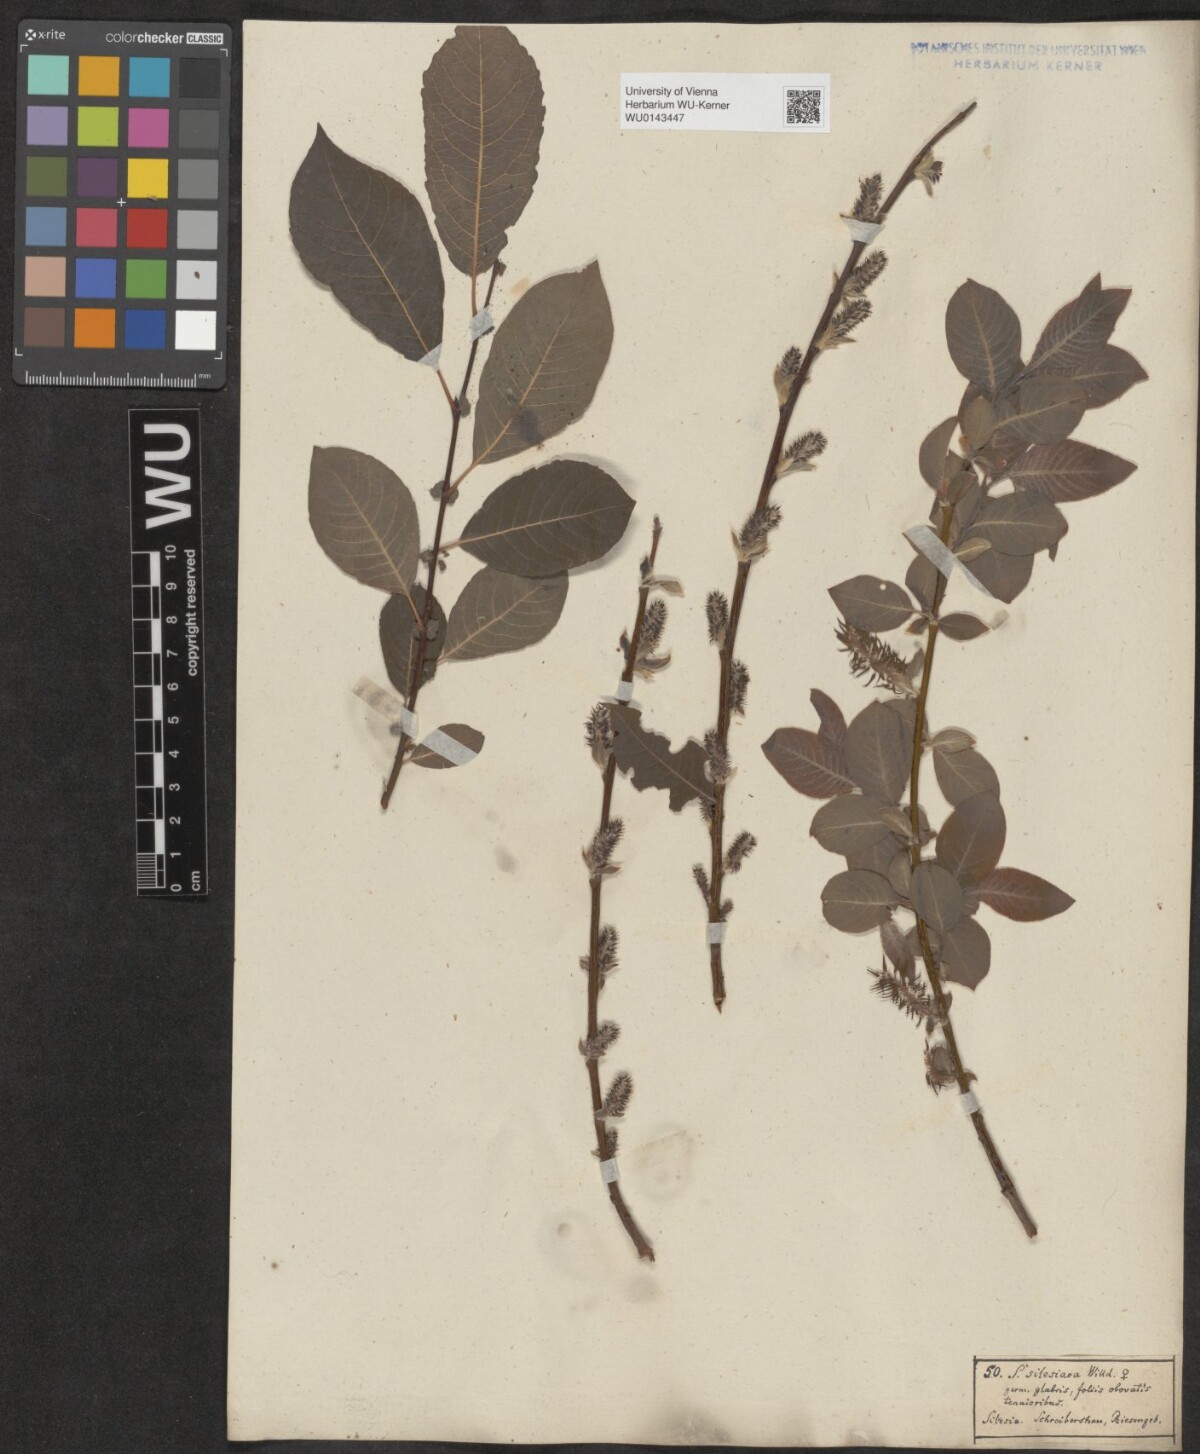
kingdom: Plantae
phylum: Tracheophyta
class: Magnoliopsida
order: Malpighiales
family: Salicaceae
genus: Salix
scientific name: Salix silesiaca
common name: Silesian willow
